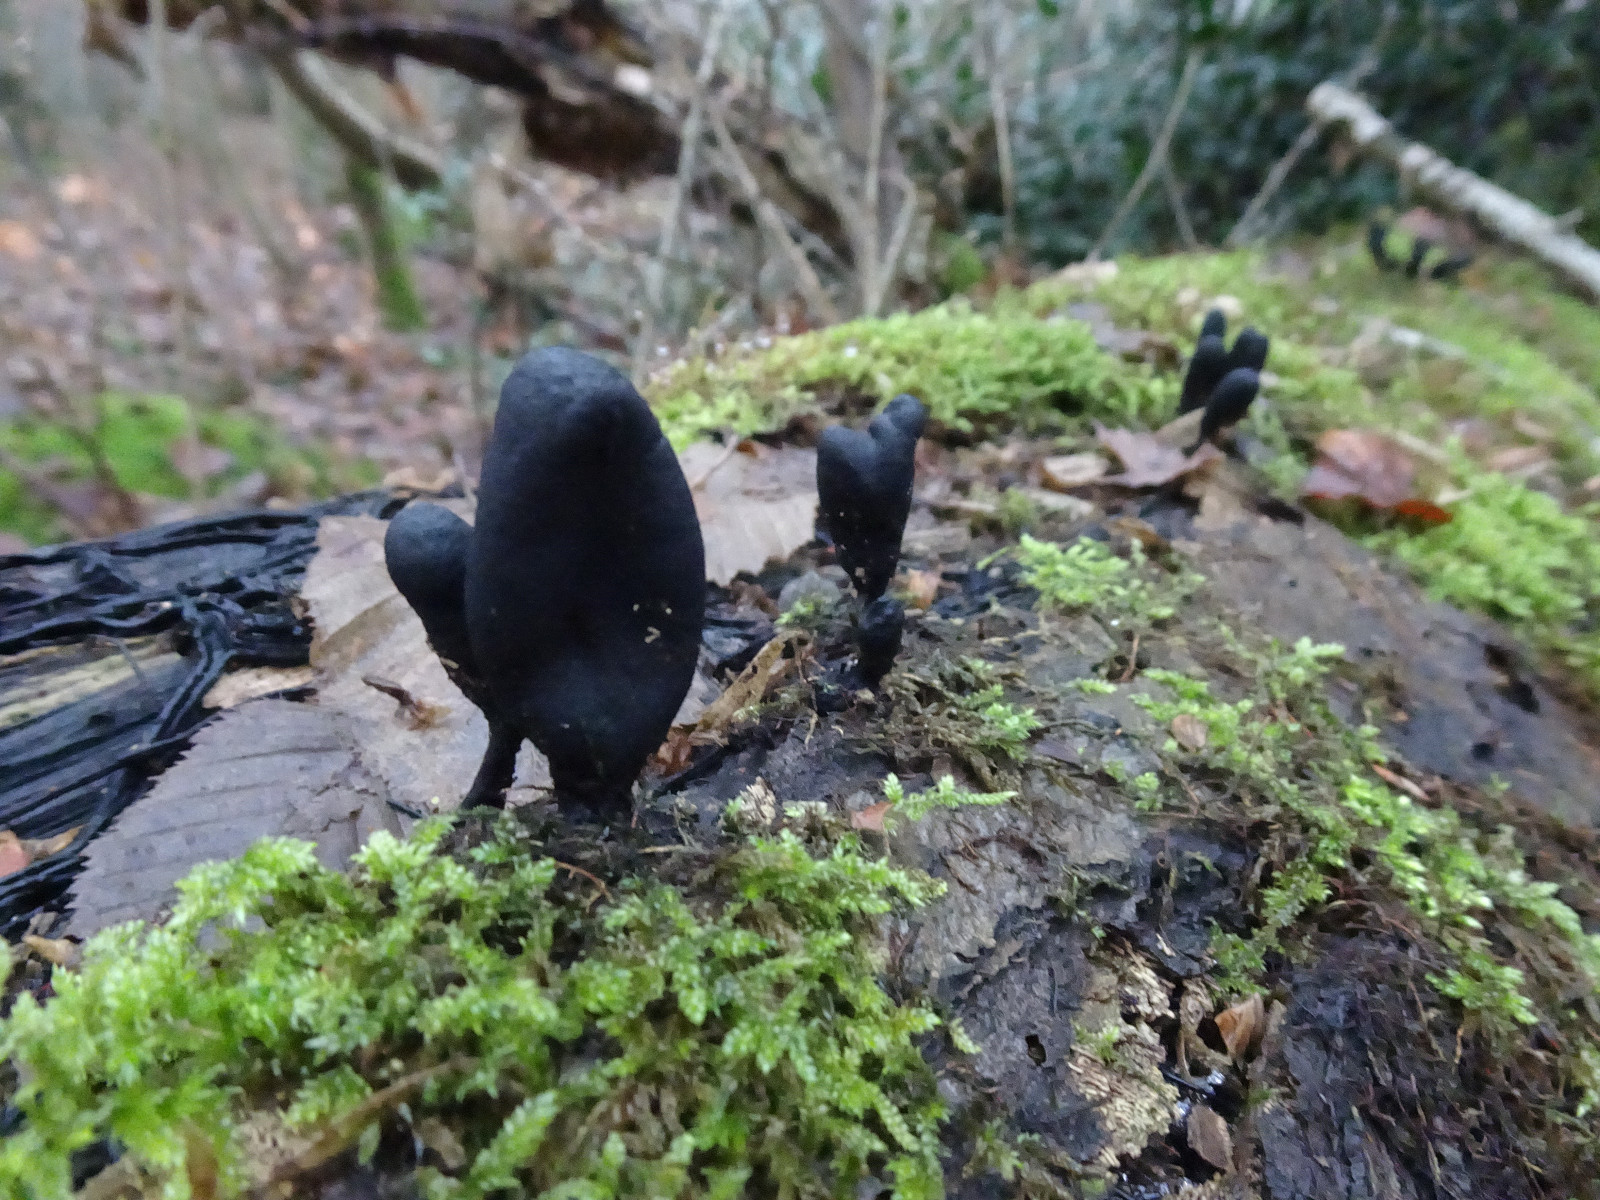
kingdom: Fungi
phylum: Ascomycota
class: Sordariomycetes
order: Xylariales
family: Xylariaceae
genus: Xylaria
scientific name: Xylaria longipes
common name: slank stødsvamp
